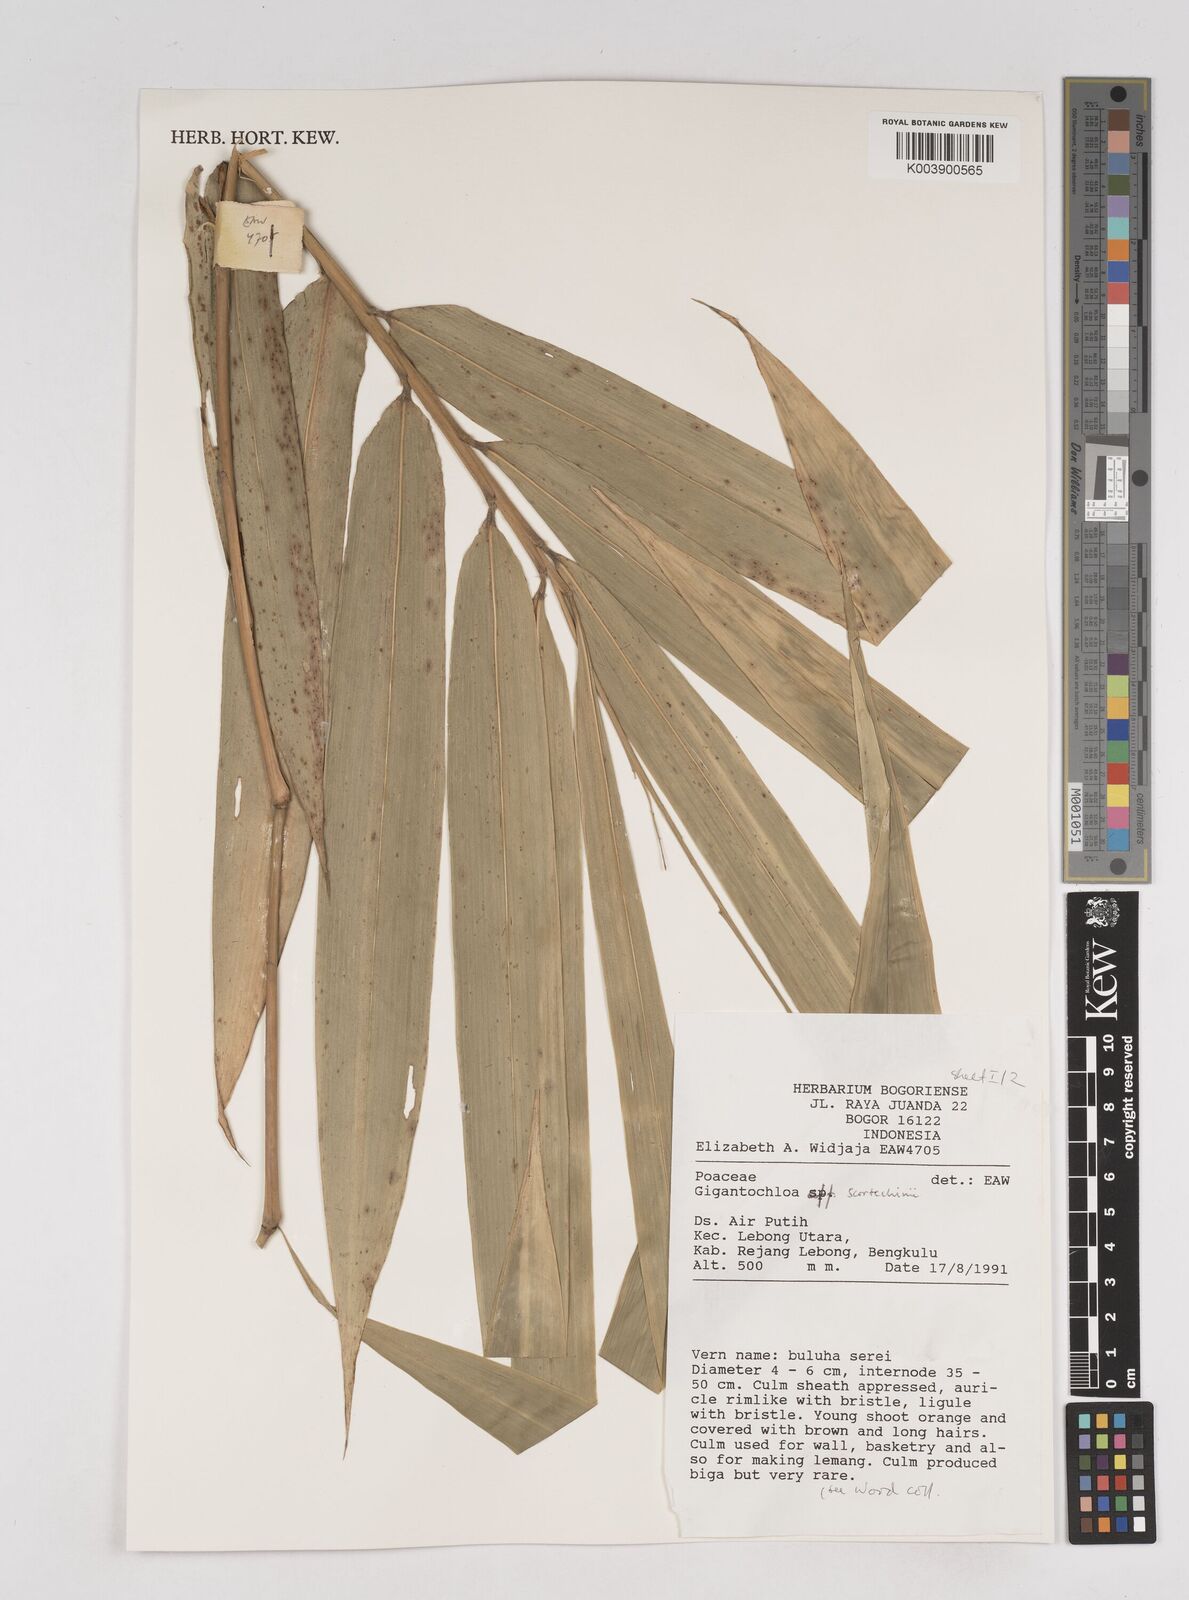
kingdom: Plantae
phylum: Tracheophyta
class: Liliopsida
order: Poales
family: Poaceae
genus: Gigantochloa
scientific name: Gigantochloa scortechinii
